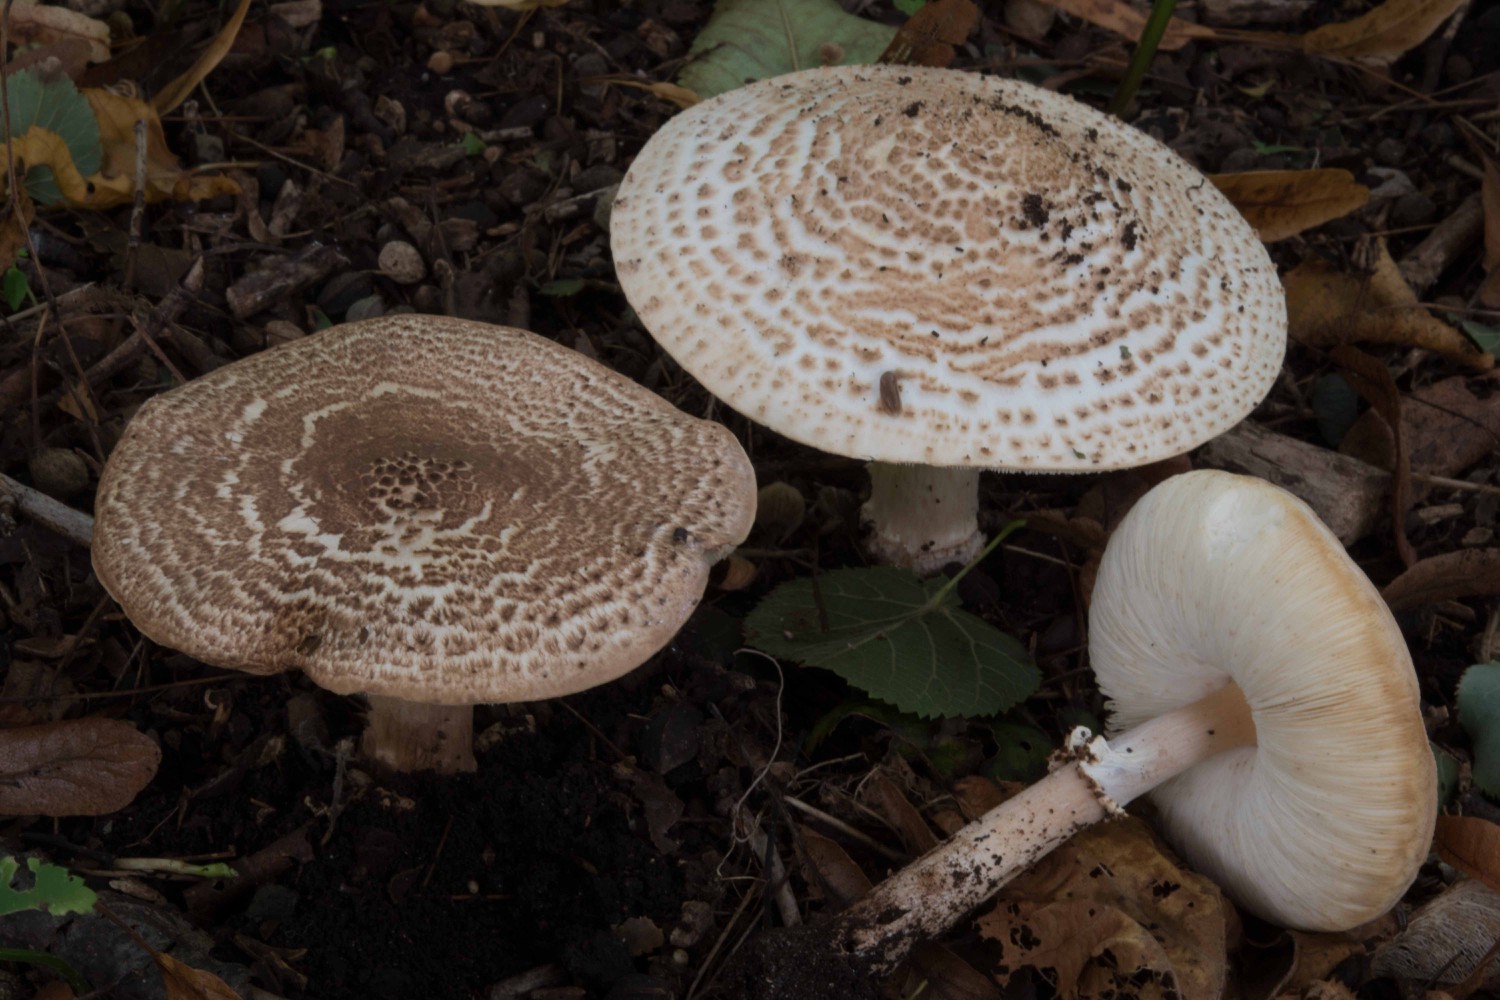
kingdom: Fungi
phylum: Basidiomycota
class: Agaricomycetes
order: Agaricales
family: Agaricaceae
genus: Echinoderma
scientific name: Echinoderma asperum
